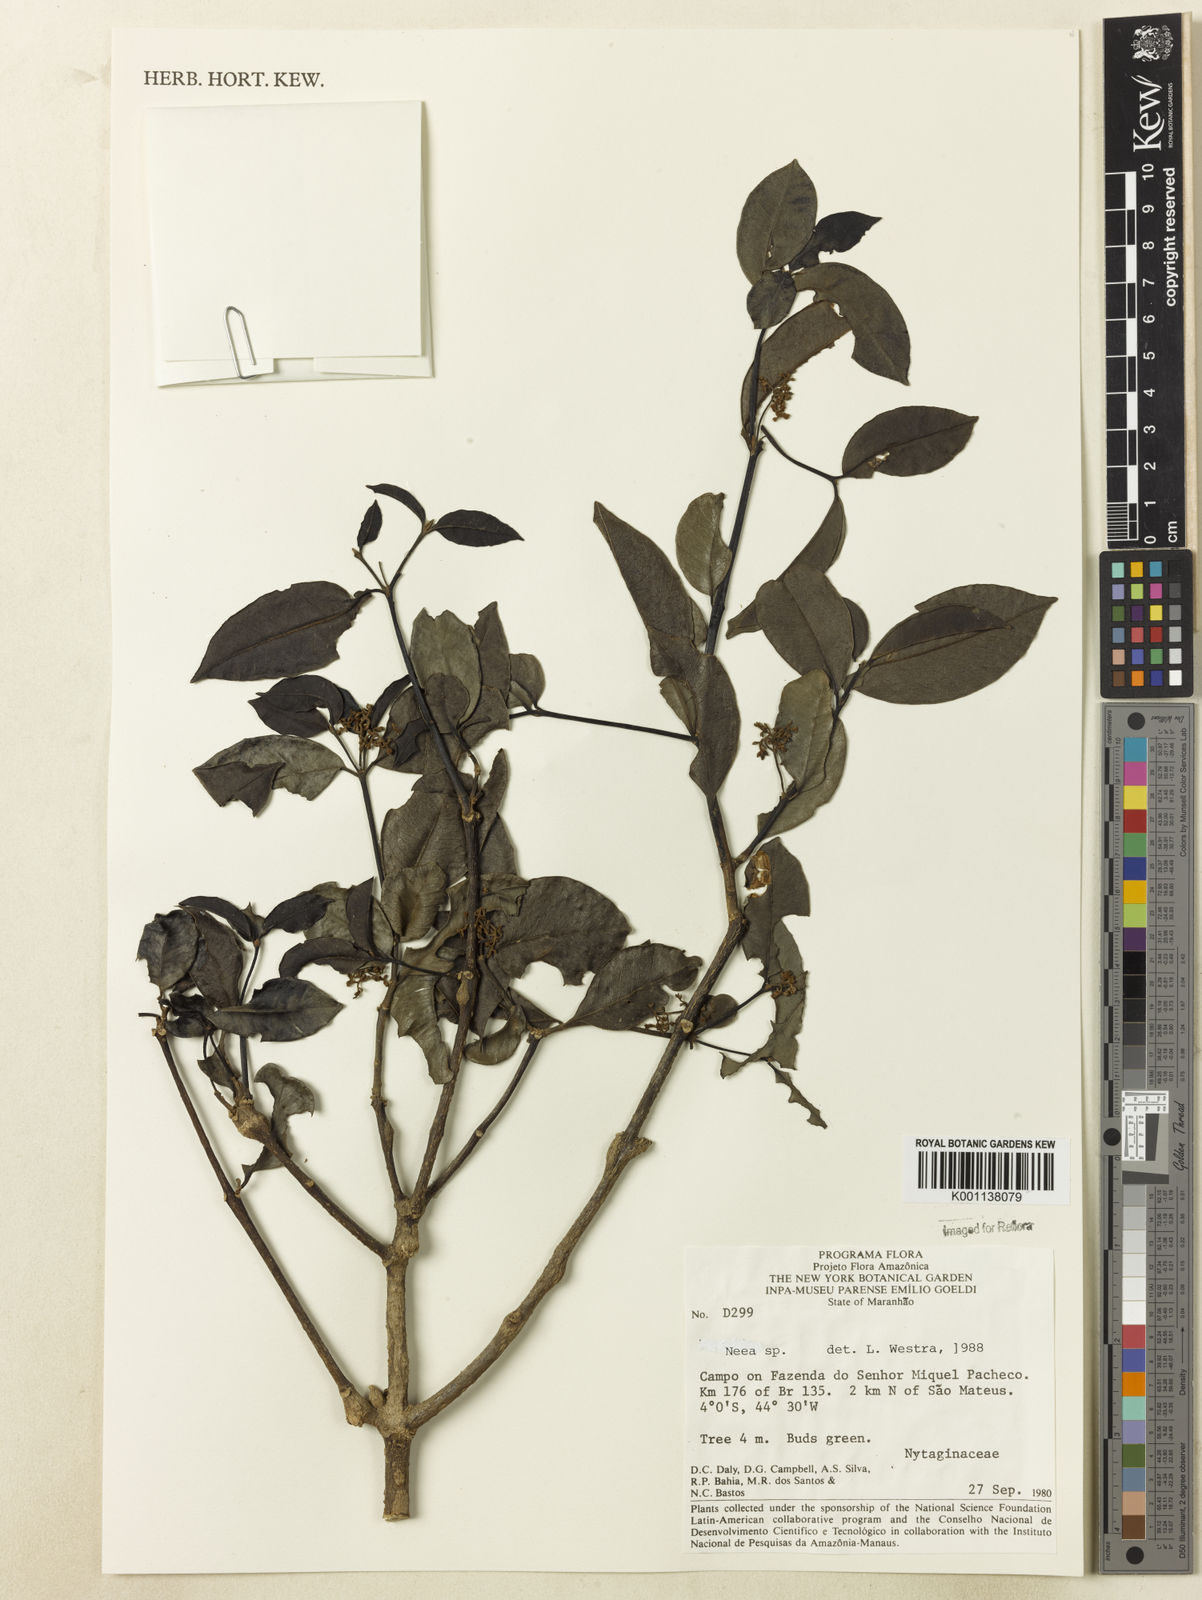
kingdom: Plantae
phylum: Tracheophyta
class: Magnoliopsida
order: Caryophyllales
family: Nyctaginaceae
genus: Neea
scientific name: Neea
